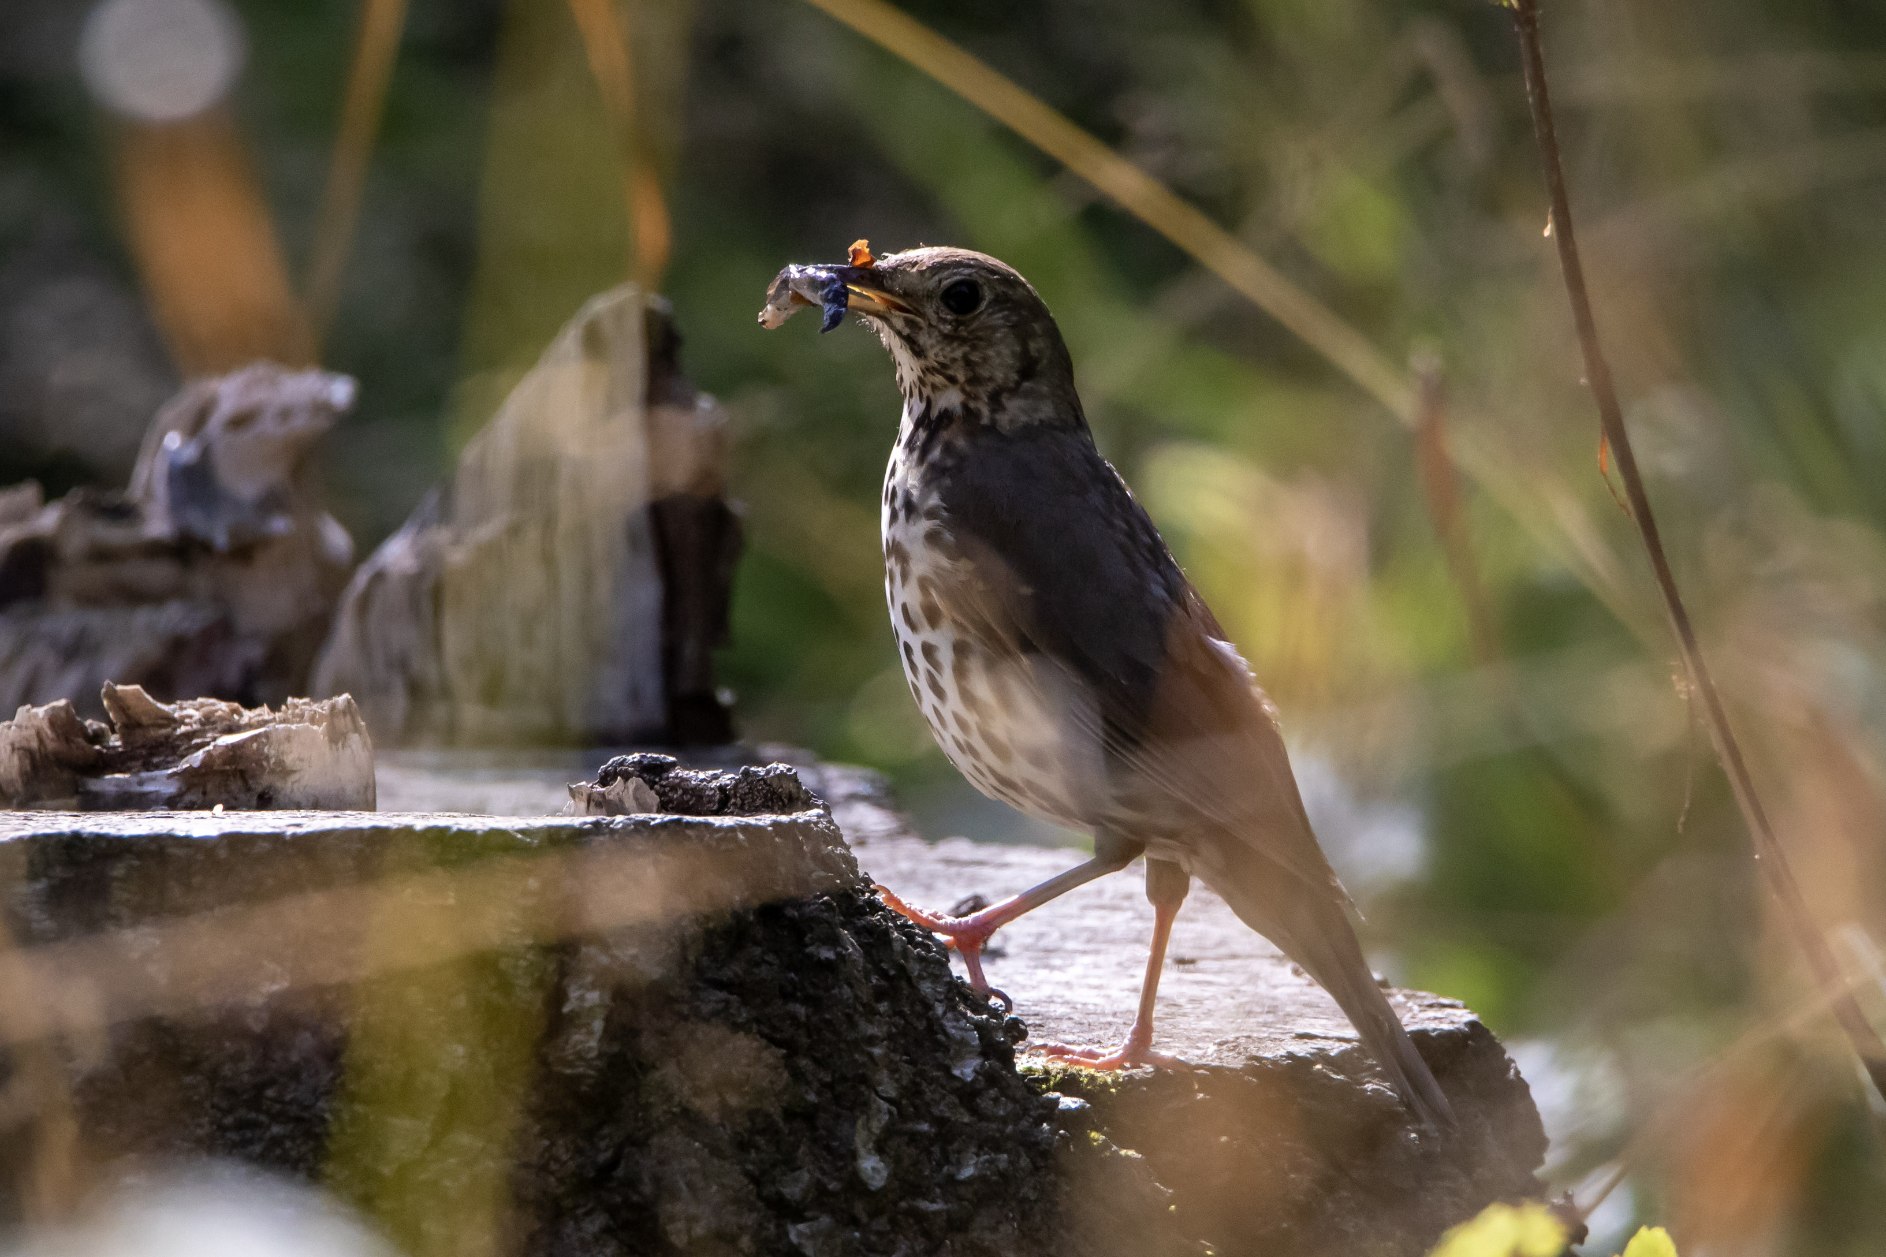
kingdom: Animalia
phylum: Chordata
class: Aves
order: Passeriformes
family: Turdidae
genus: Turdus
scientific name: Turdus philomelos
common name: Sangdrossel
